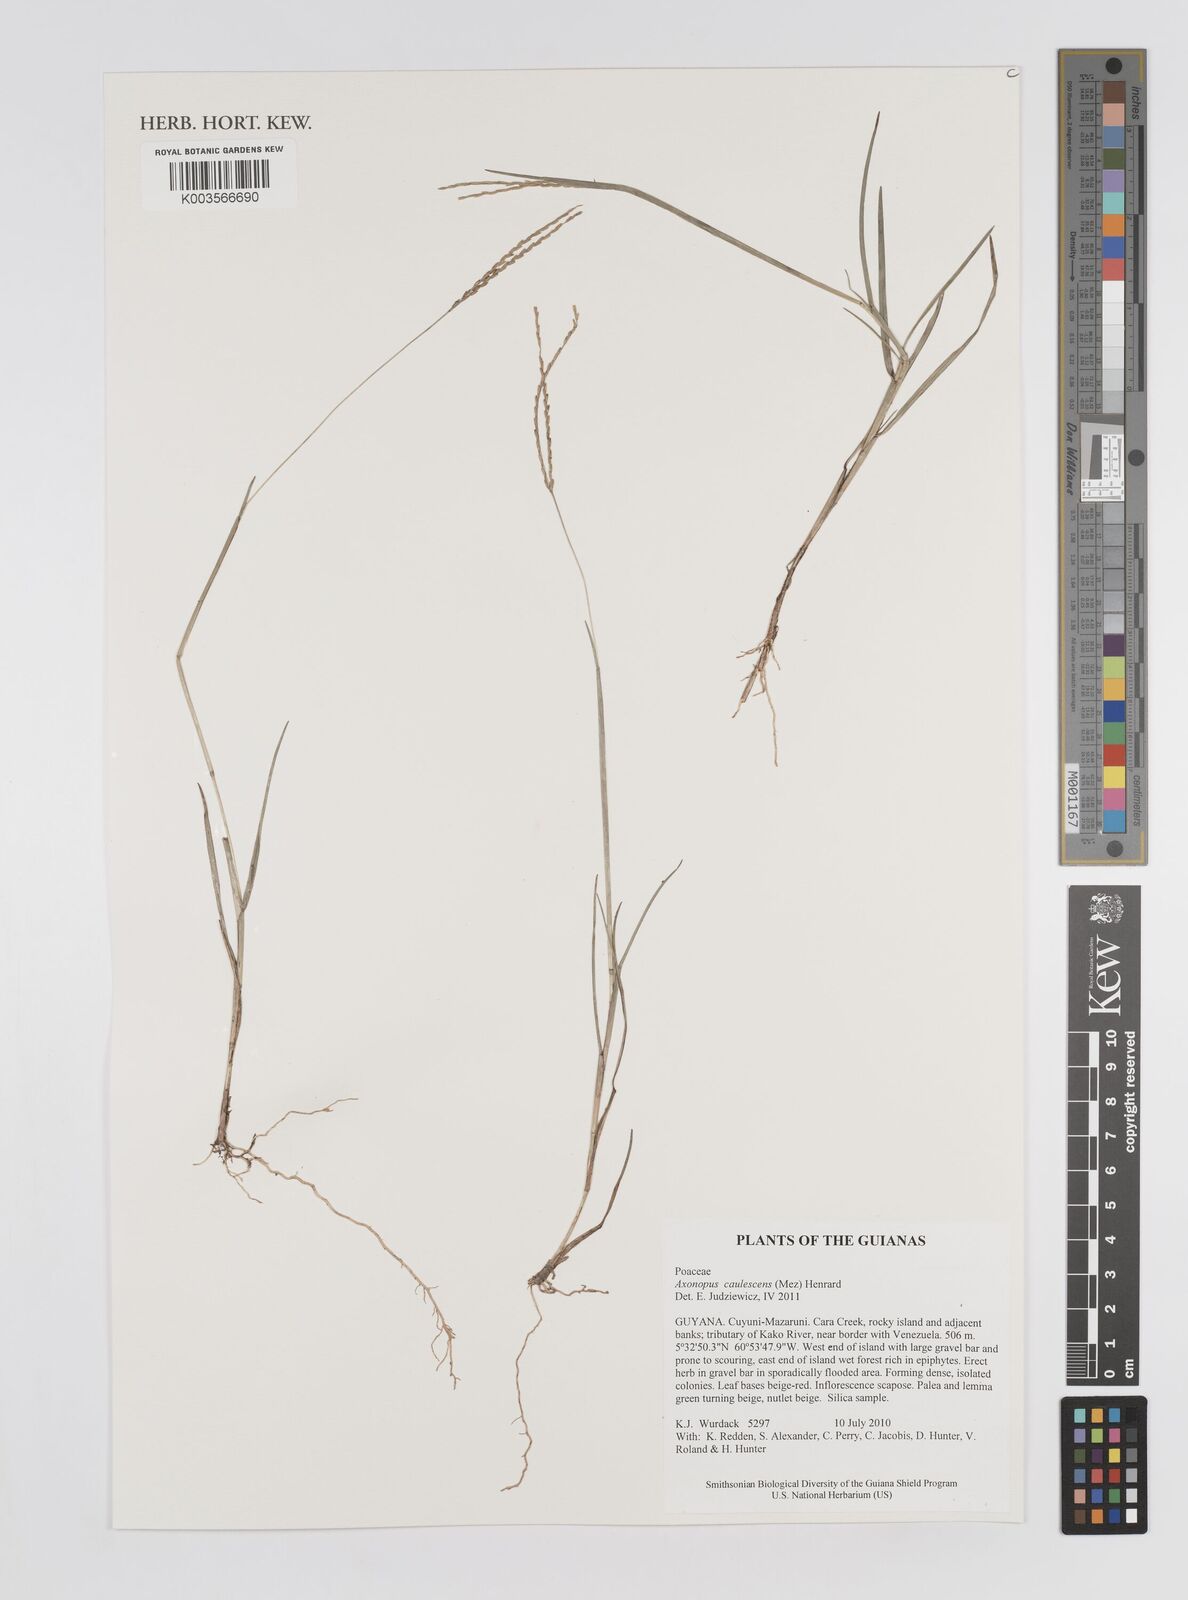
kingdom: Plantae
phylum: Tracheophyta
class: Liliopsida
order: Poales
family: Poaceae
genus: Axonopus
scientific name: Axonopus caulescens
